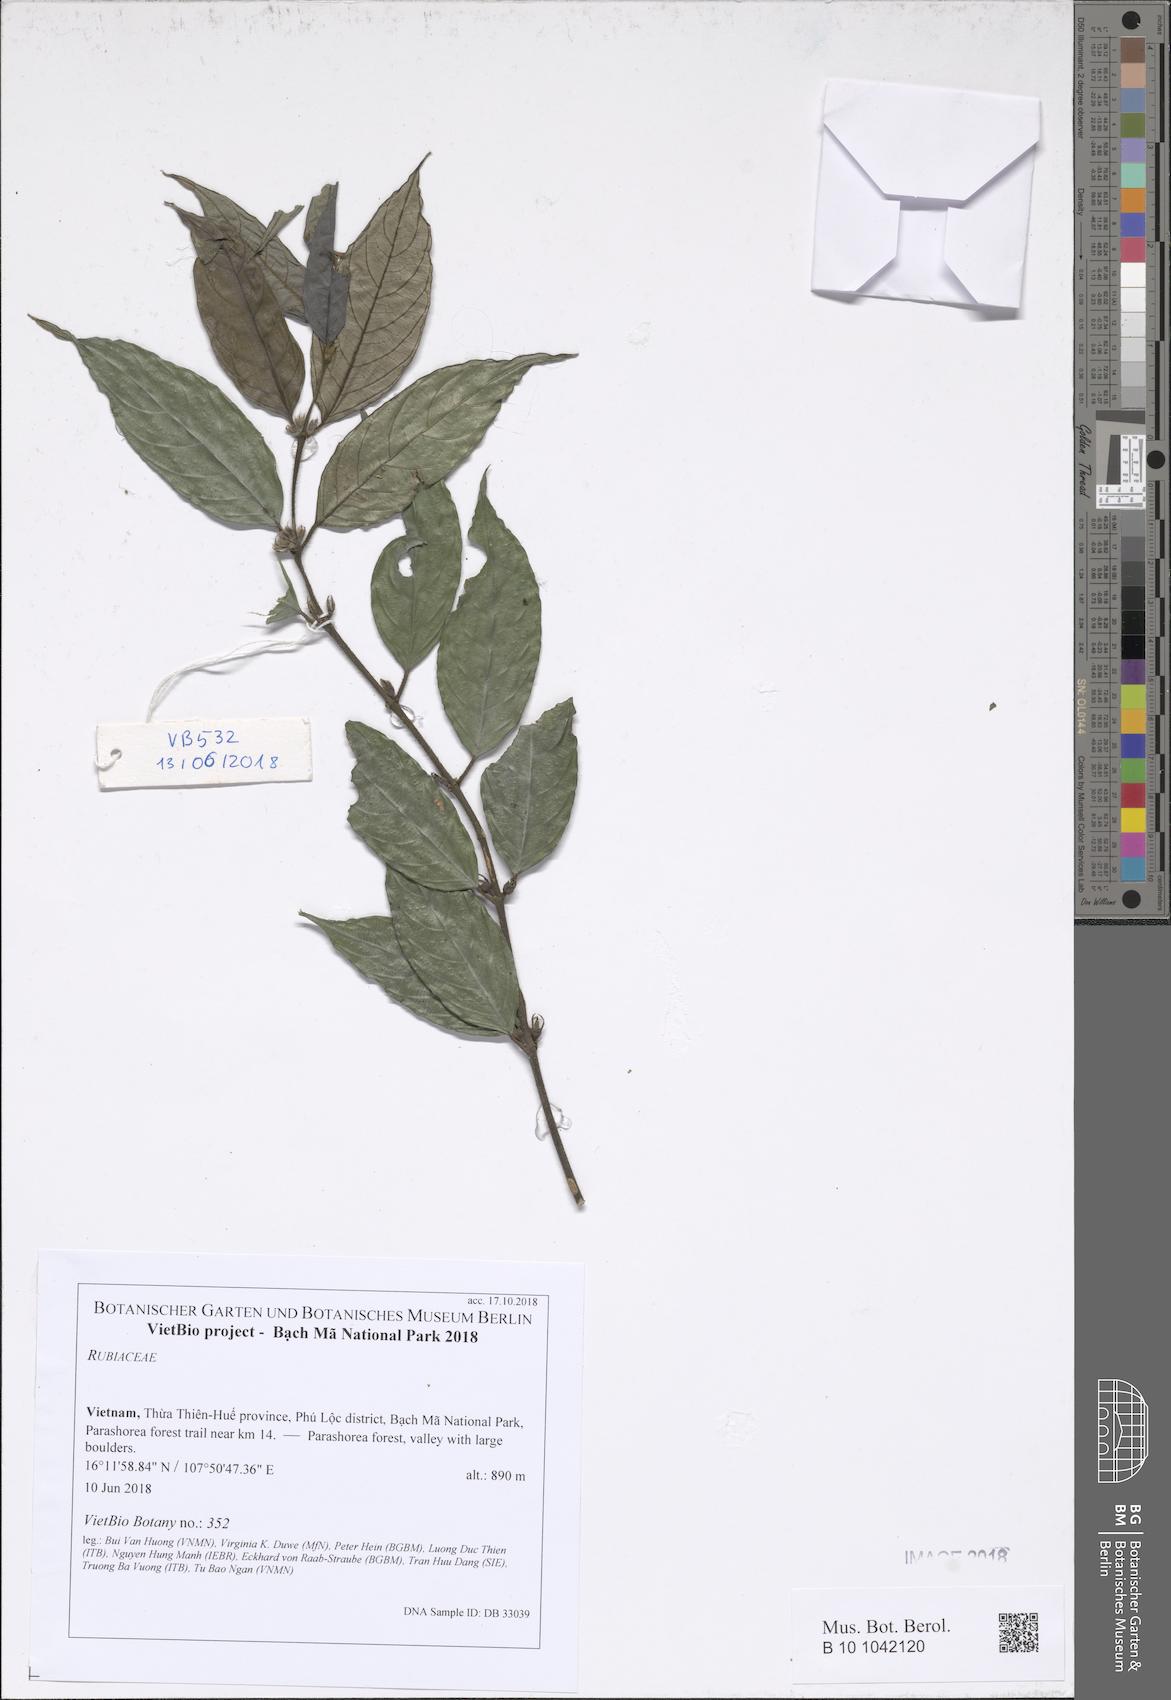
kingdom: Plantae
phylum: Tracheophyta
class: Magnoliopsida
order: Gentianales
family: Rubiaceae
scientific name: Rubiaceae
